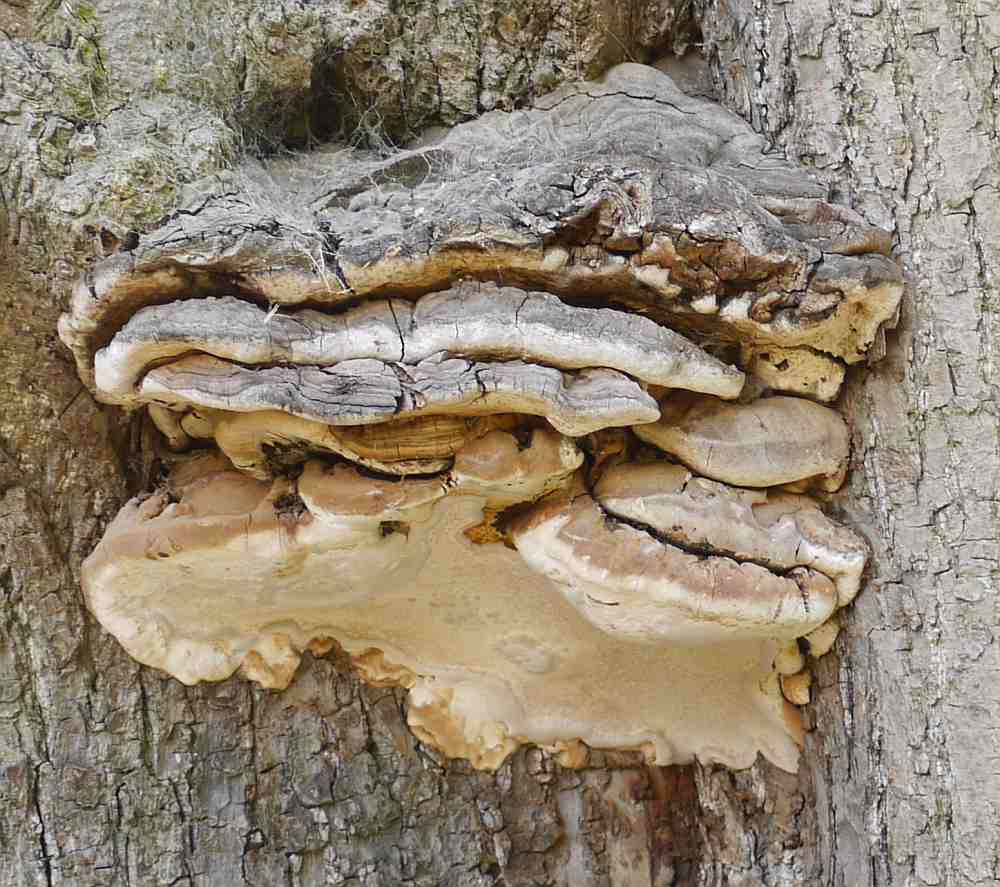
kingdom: Fungi
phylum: Basidiomycota
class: Agaricomycetes
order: Polyporales
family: Polyporaceae
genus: Ganoderma
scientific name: Ganoderma adspersum
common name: grov lakporesvamp
